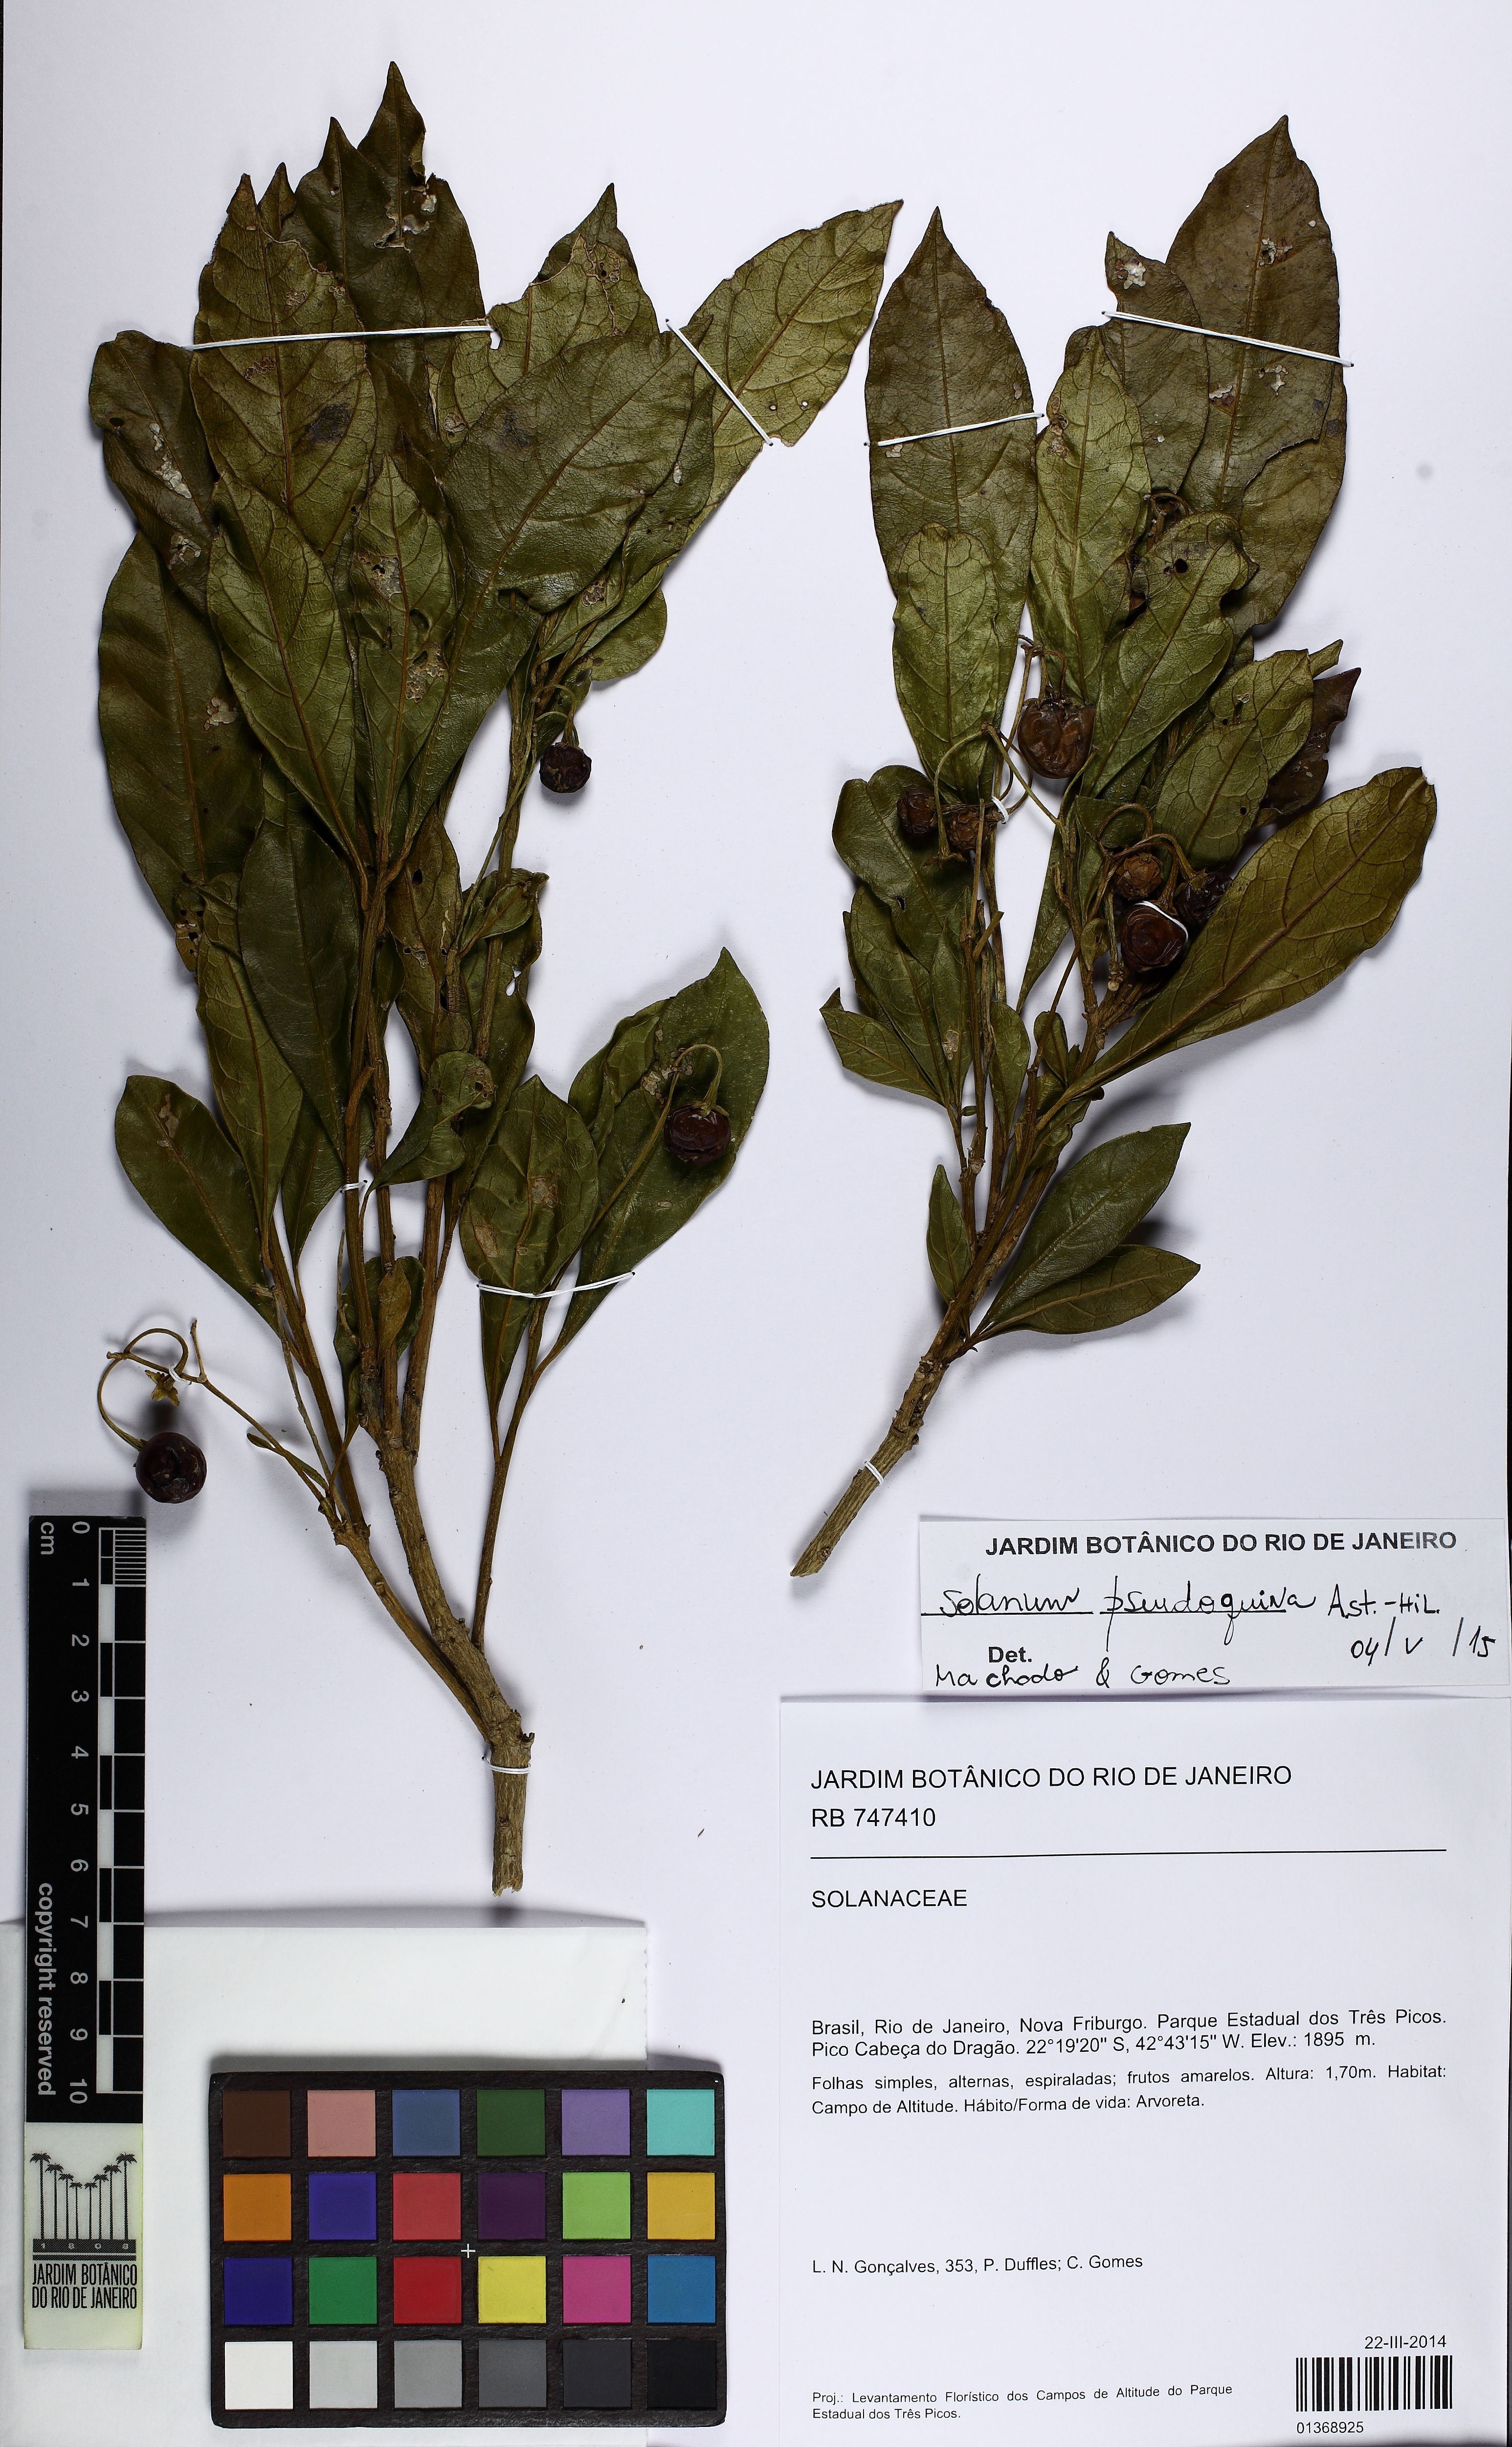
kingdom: Plantae
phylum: Tracheophyta
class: Magnoliopsida
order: Solanales
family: Solanaceae
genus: Solanum
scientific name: Solanum pseudoquina
